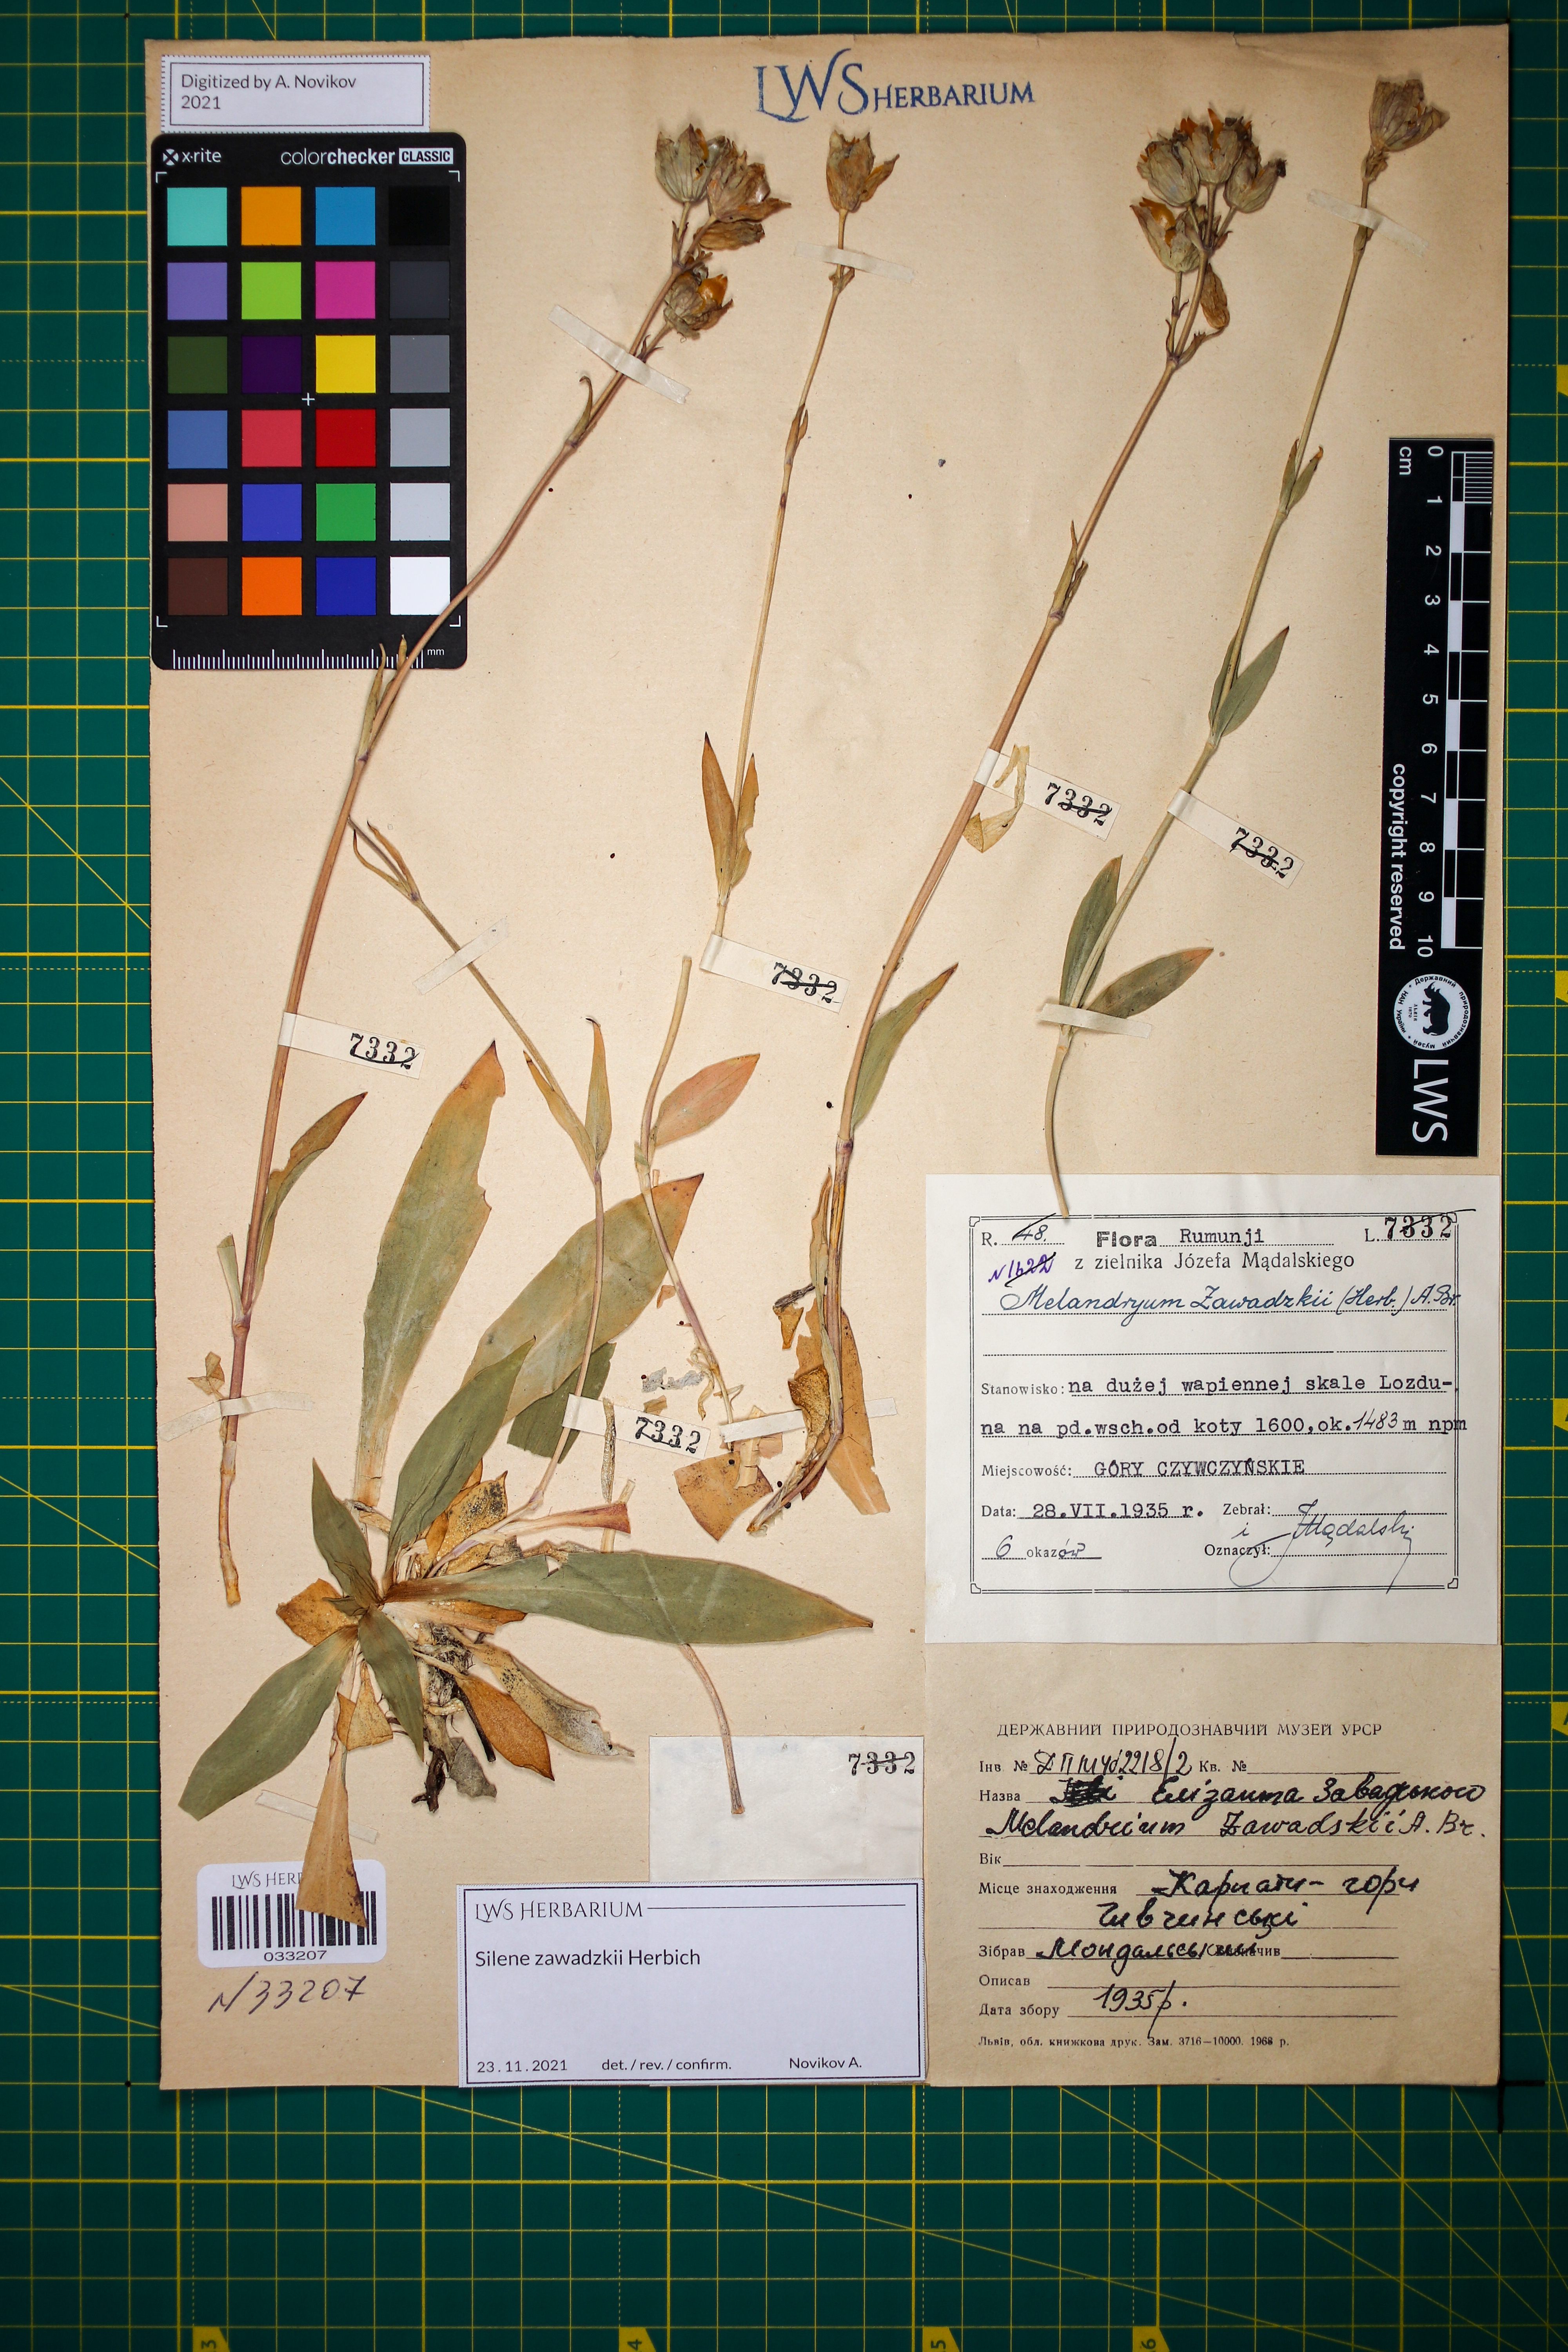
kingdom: Plantae
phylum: Tracheophyta
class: Magnoliopsida
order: Caryophyllales
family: Caryophyllaceae
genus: Silene
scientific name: Silene zawadzkii
